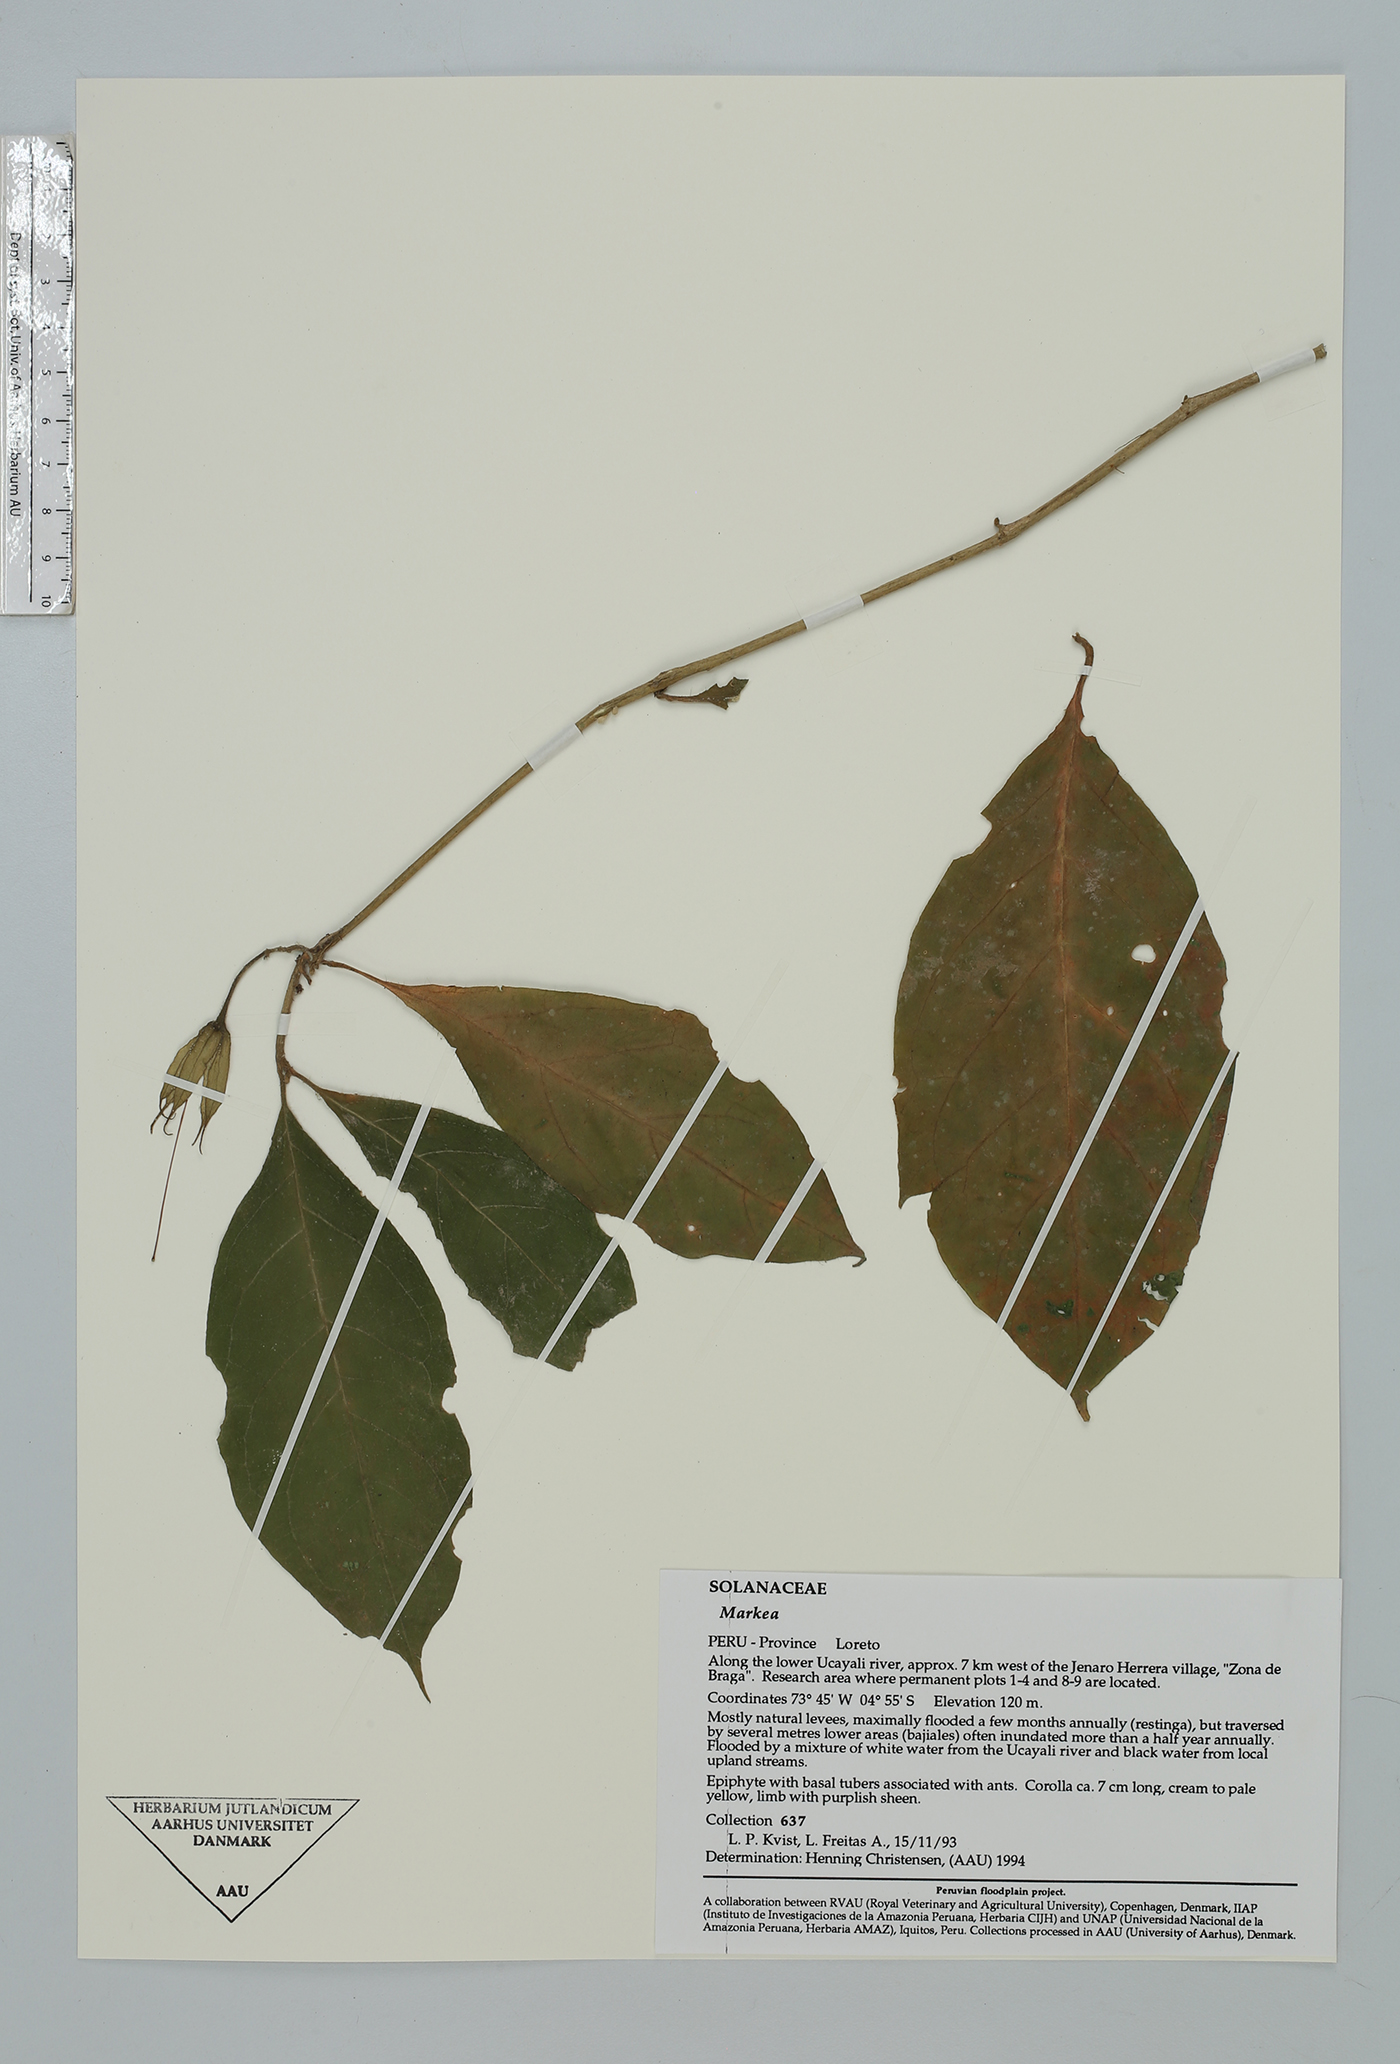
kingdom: Plantae
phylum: Tracheophyta
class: Magnoliopsida
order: Solanales
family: Solanaceae
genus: Markea
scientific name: Markea formicarum
